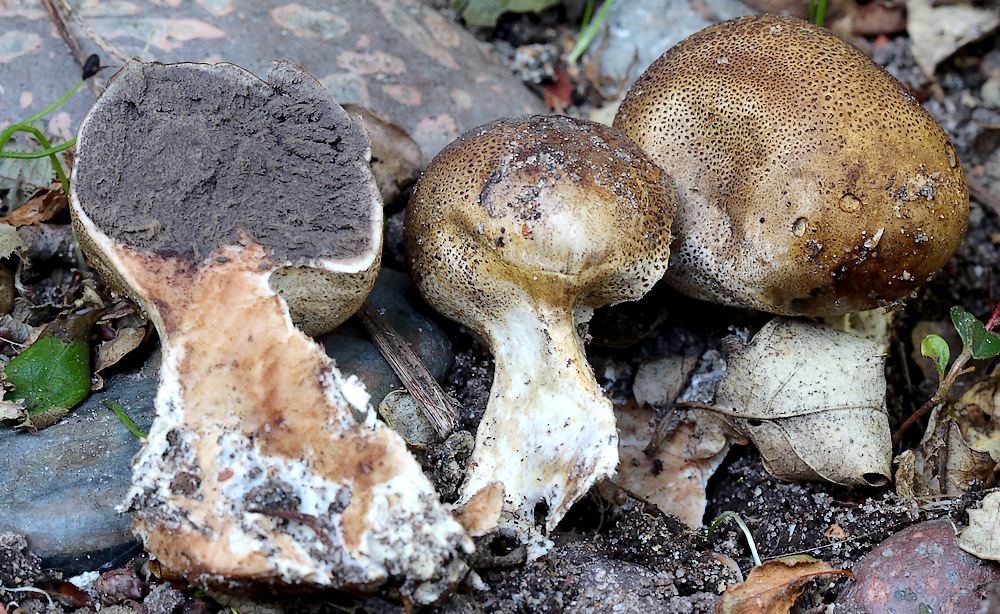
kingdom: Fungi
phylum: Basidiomycota
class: Agaricomycetes
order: Boletales
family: Sclerodermataceae
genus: Scleroderma
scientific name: Scleroderma verrucosum
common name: stilket bruskbold
